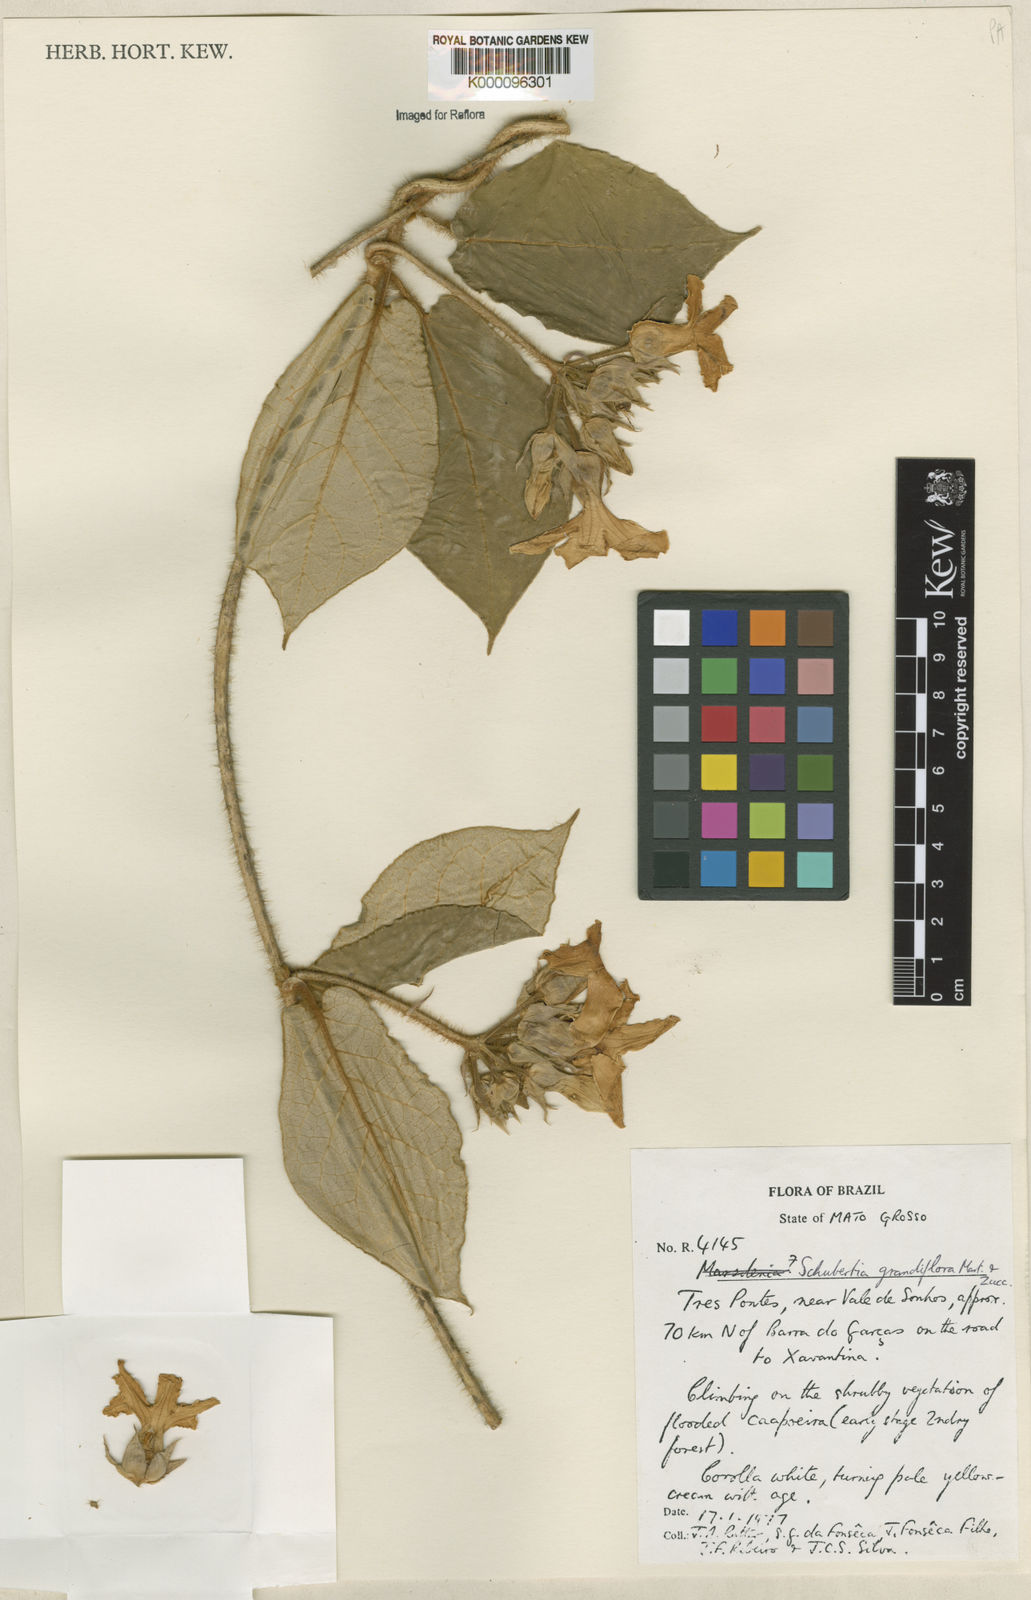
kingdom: Plantae
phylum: Tracheophyta
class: Magnoliopsida
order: Gentianales
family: Apocynaceae
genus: Macroscepis
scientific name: Macroscepis grandiflora
